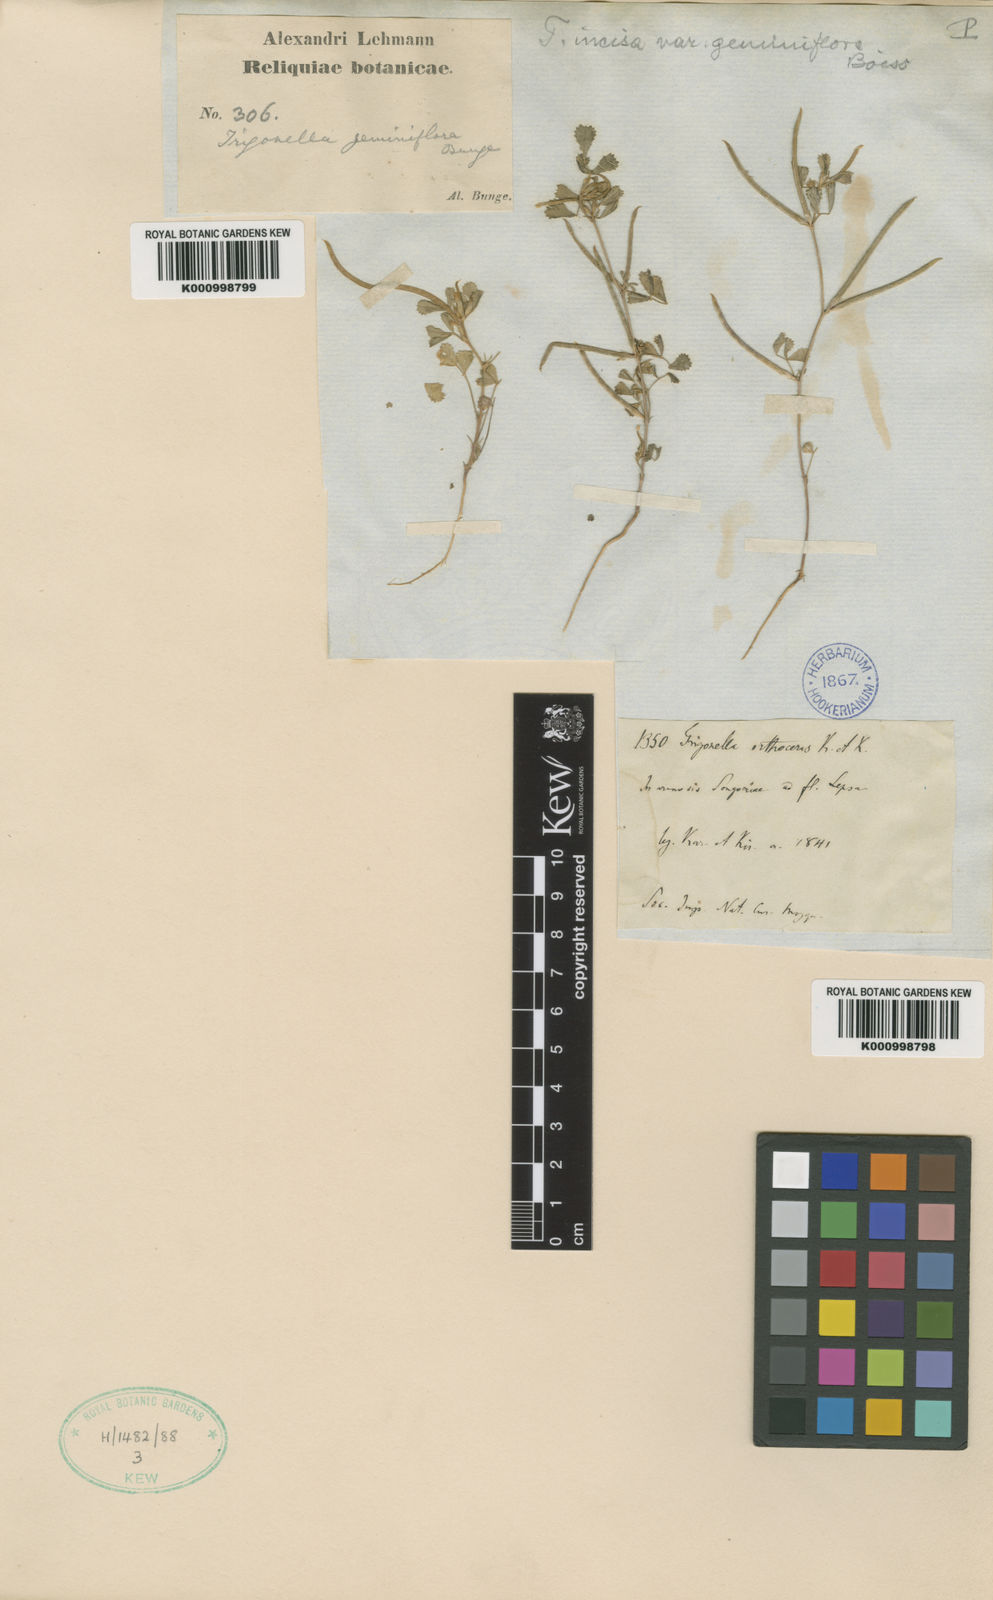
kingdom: Plantae
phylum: Tracheophyta
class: Magnoliopsida
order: Fabales
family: Fabaceae
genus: Medicago
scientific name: Medicago laciniata
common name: Tattered medick
